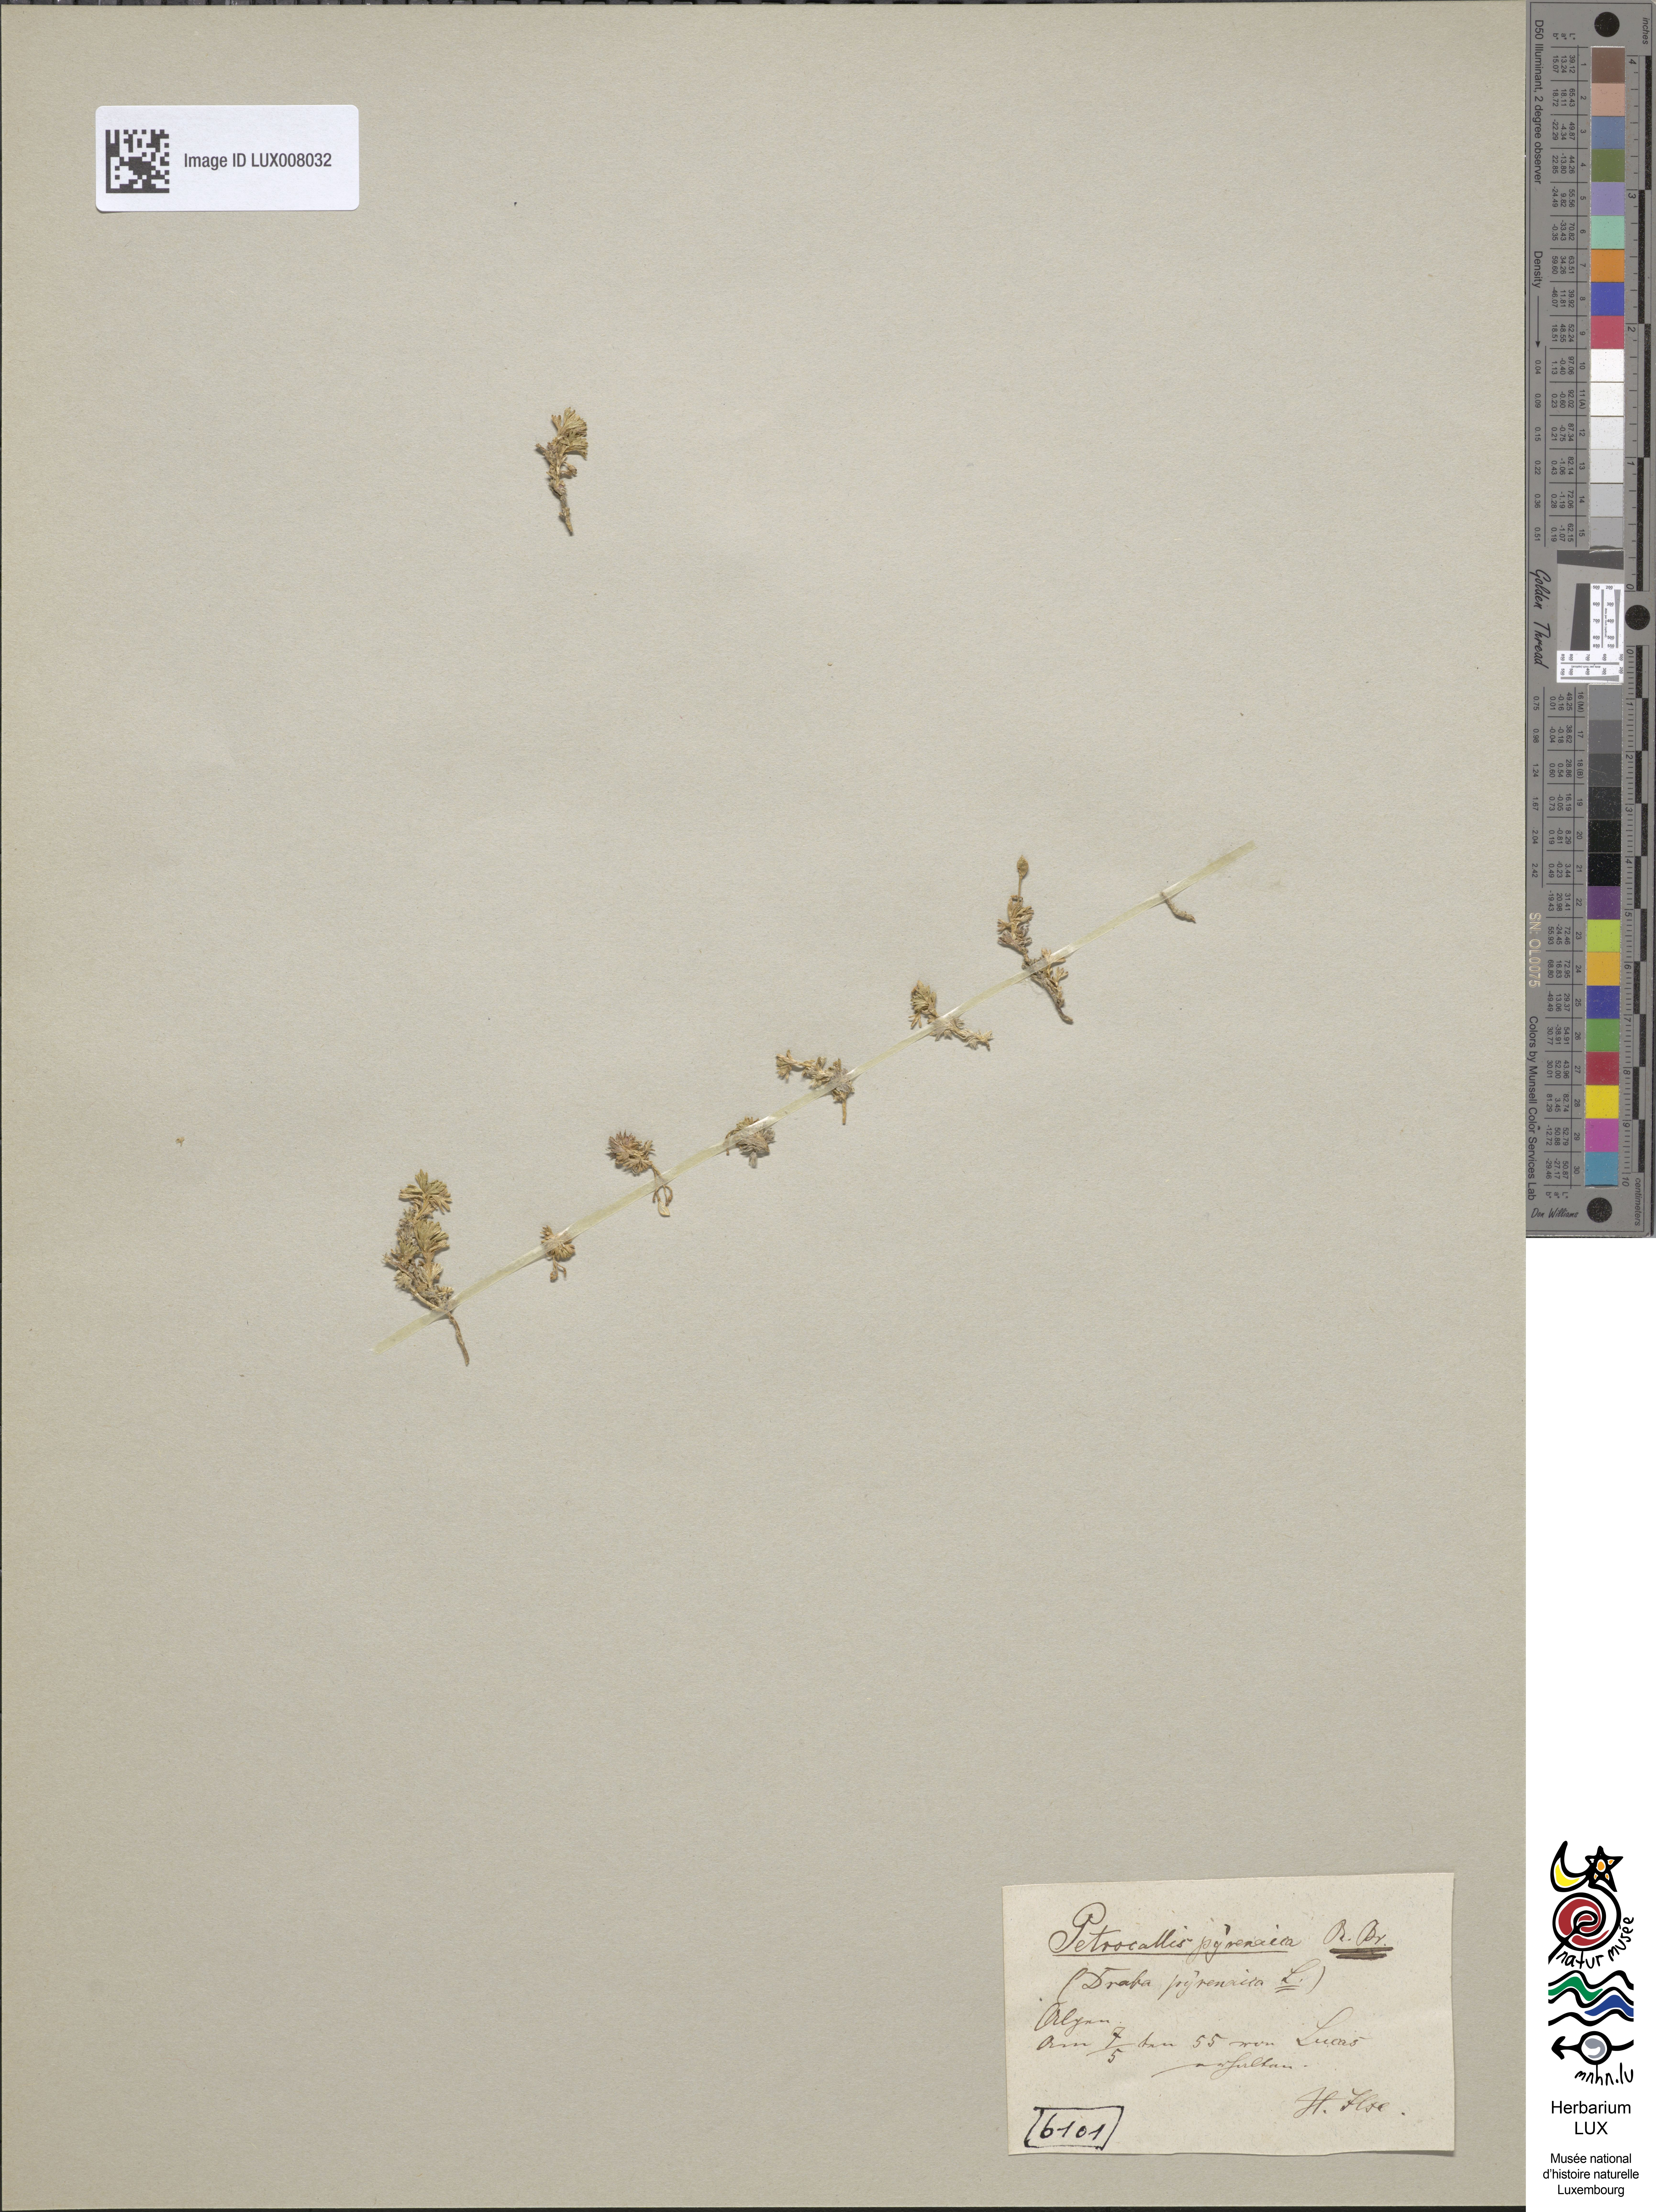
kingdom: Plantae
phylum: Tracheophyta
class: Magnoliopsida
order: Brassicales
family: Brassicaceae
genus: Petrocallis
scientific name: Petrocallis pyrenaica
